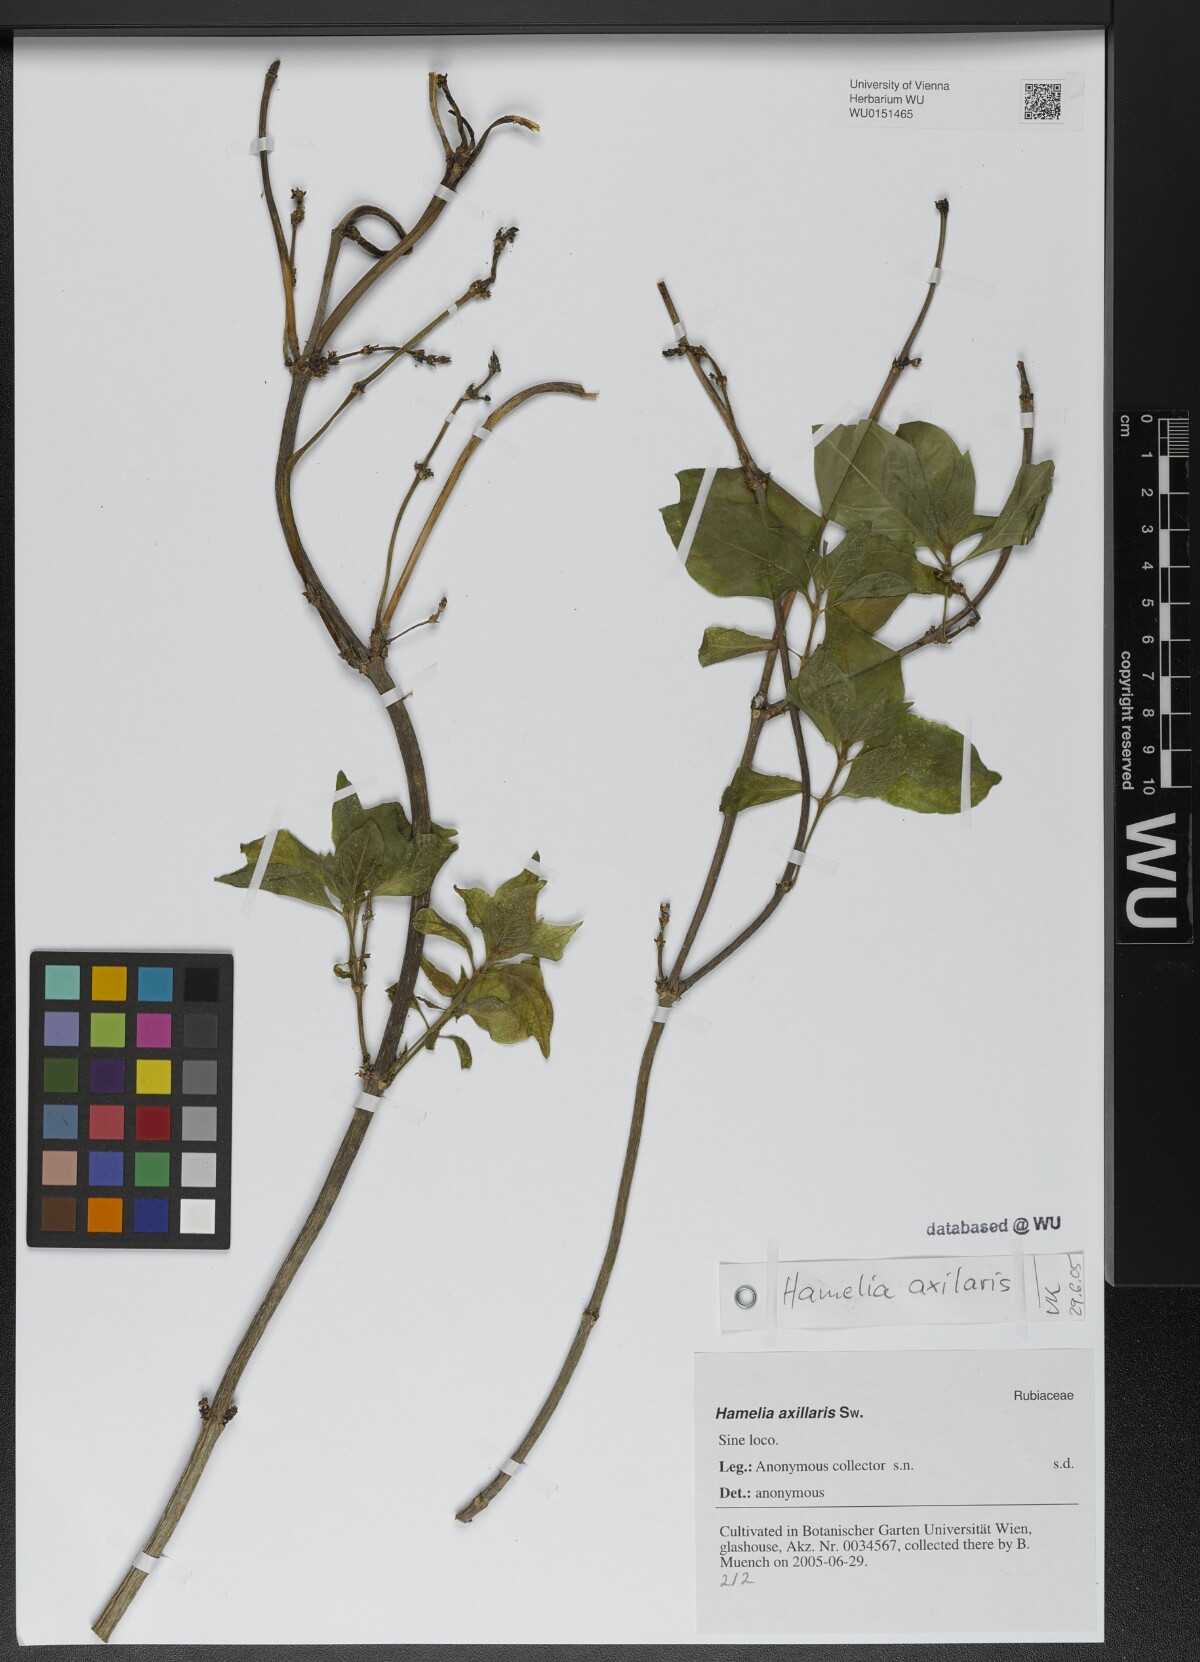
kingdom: Plantae
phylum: Tracheophyta
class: Magnoliopsida
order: Gentianales
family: Rubiaceae
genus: Hamelia
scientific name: Hamelia axillaris
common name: Balsamillo
